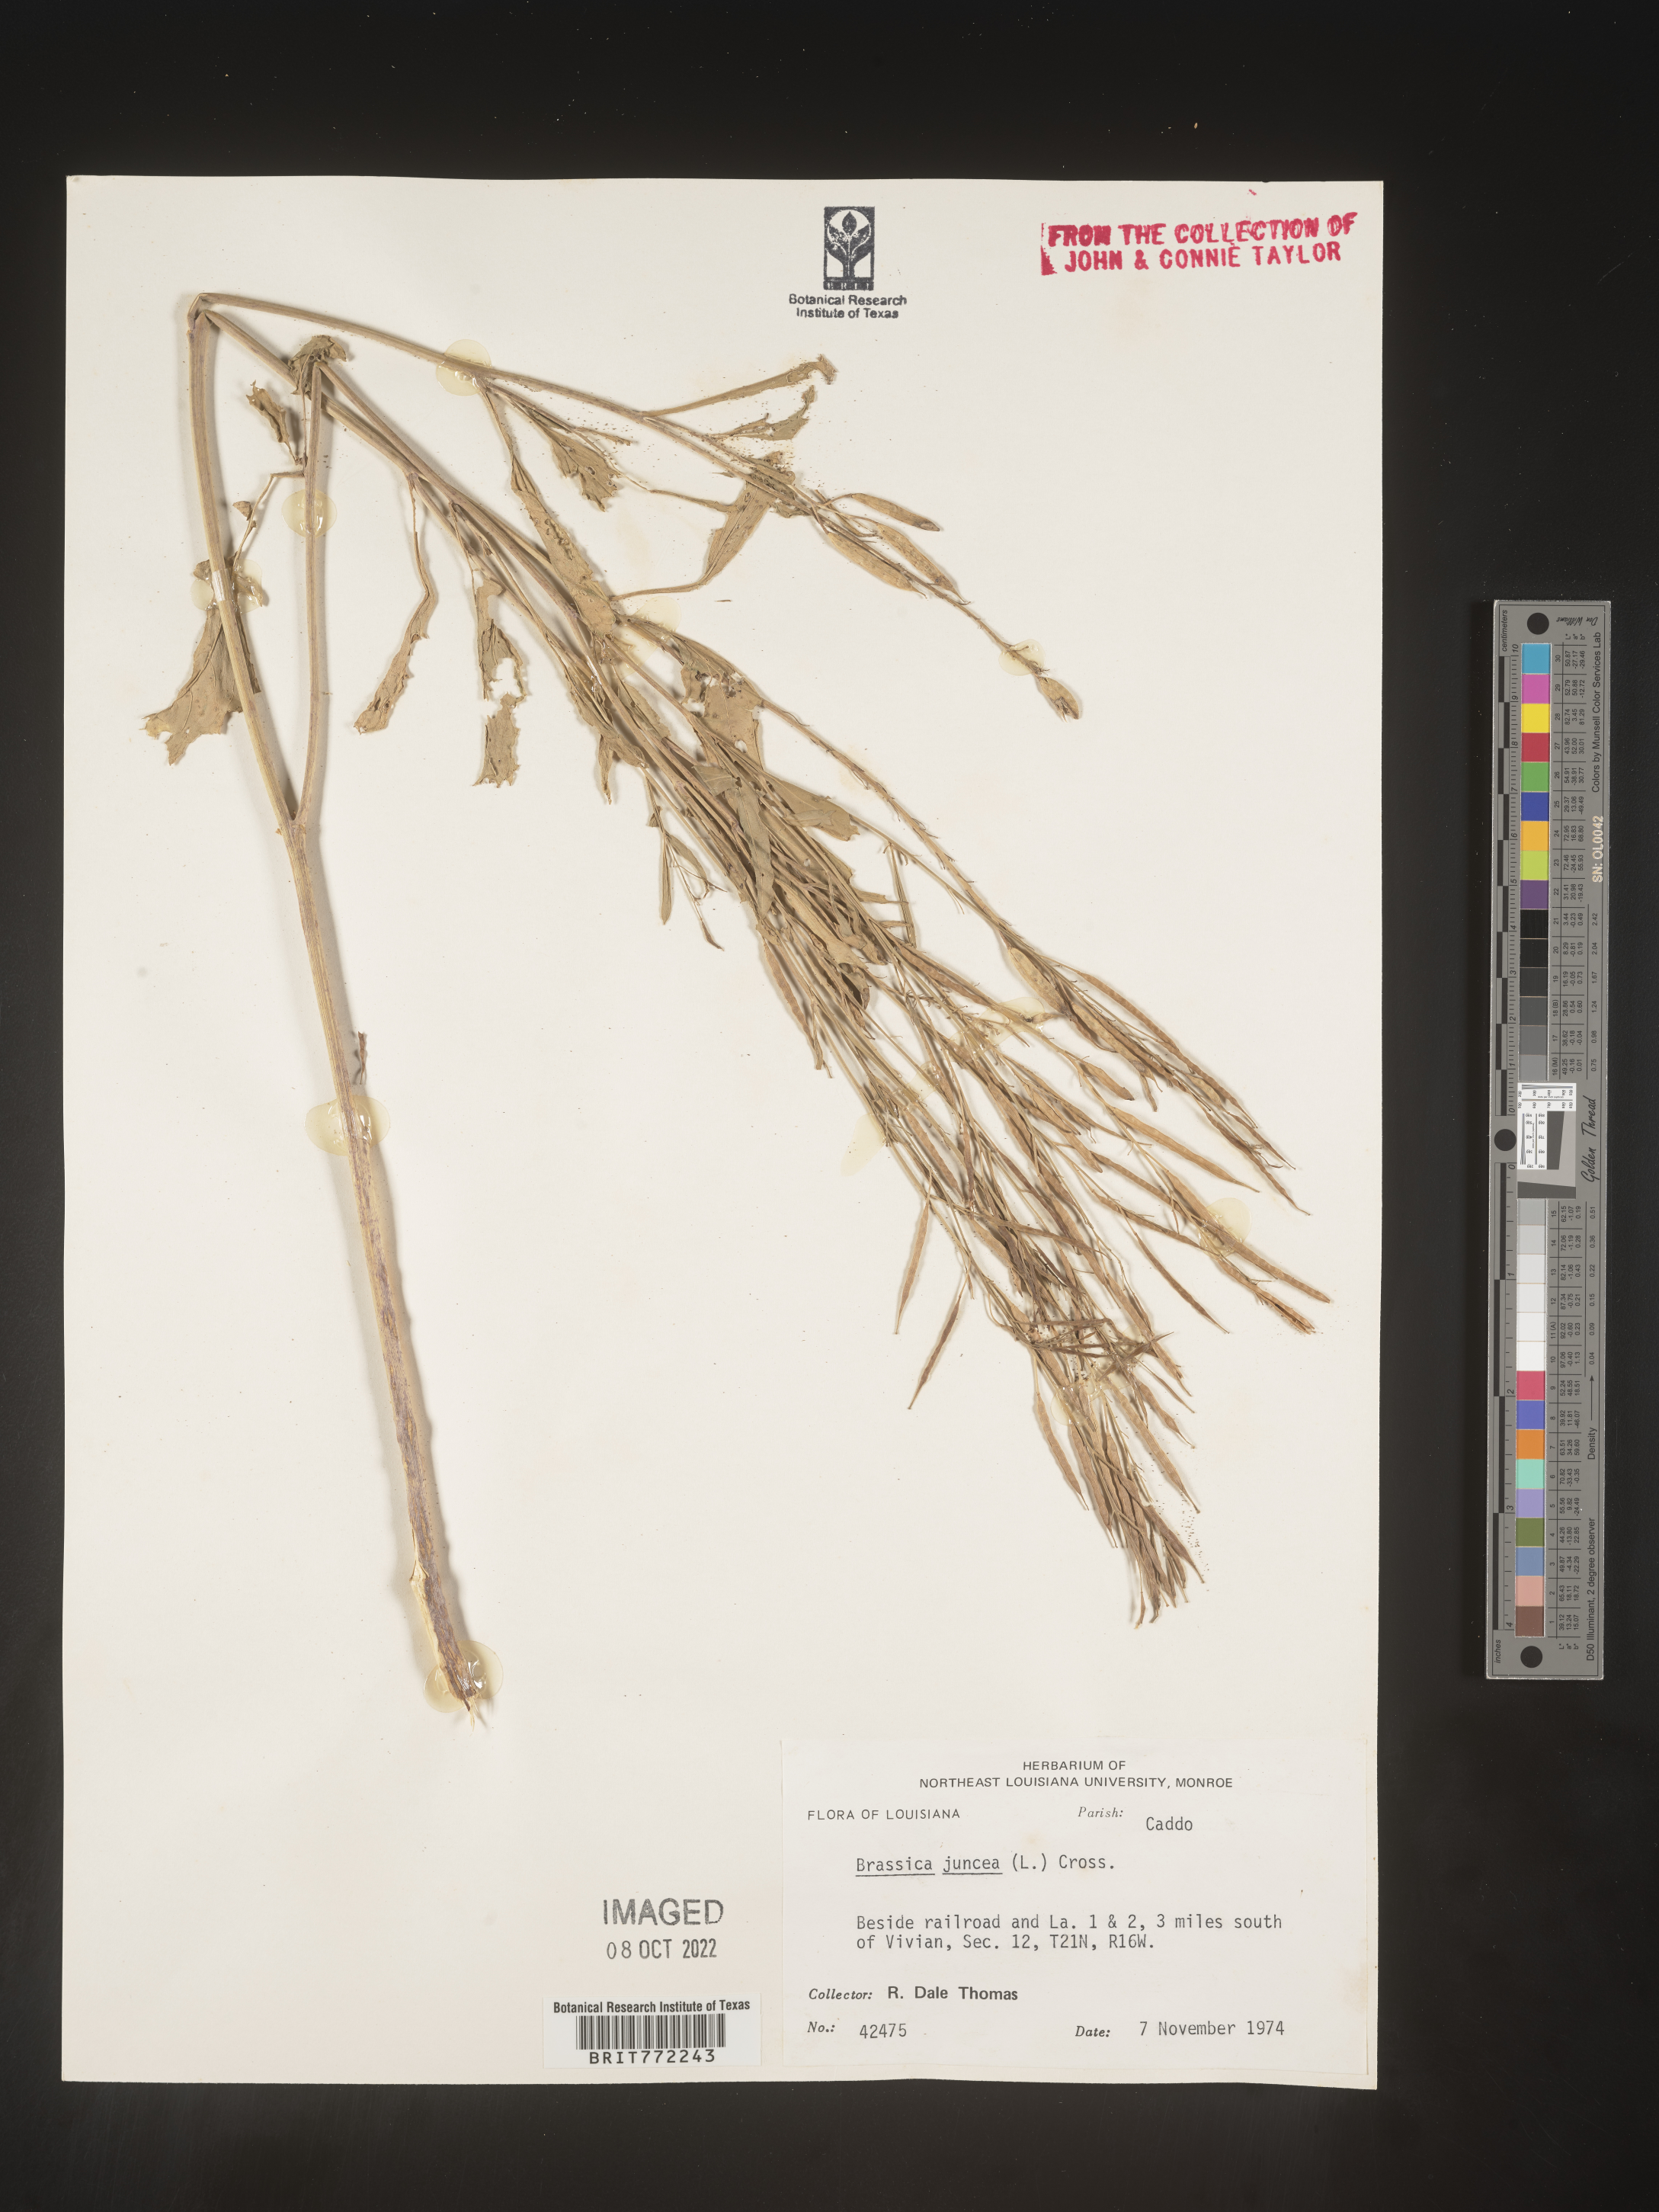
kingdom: Plantae
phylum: Tracheophyta
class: Magnoliopsida
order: Brassicales
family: Brassicaceae
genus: Brassica
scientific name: Brassica juncea
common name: Brown mustard
